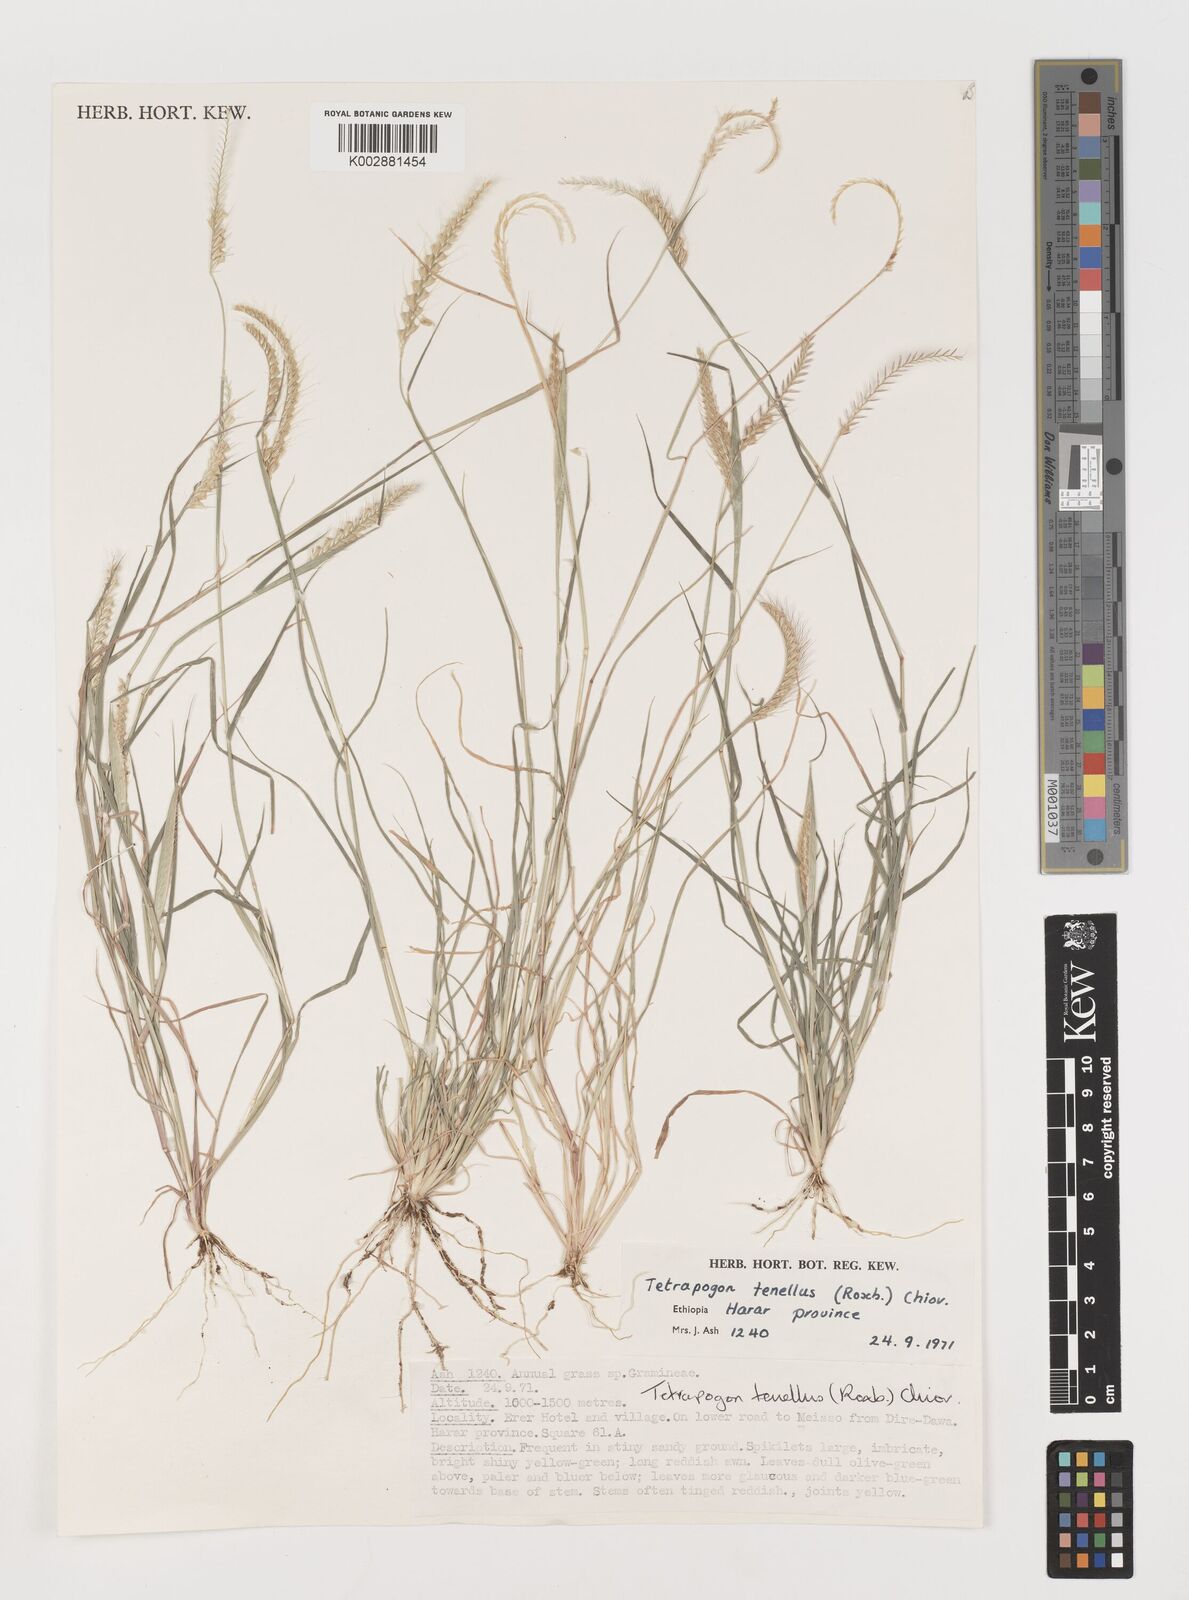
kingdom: Plantae
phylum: Tracheophyta
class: Liliopsida
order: Poales
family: Poaceae
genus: Tetrapogon
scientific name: Tetrapogon tenellus
